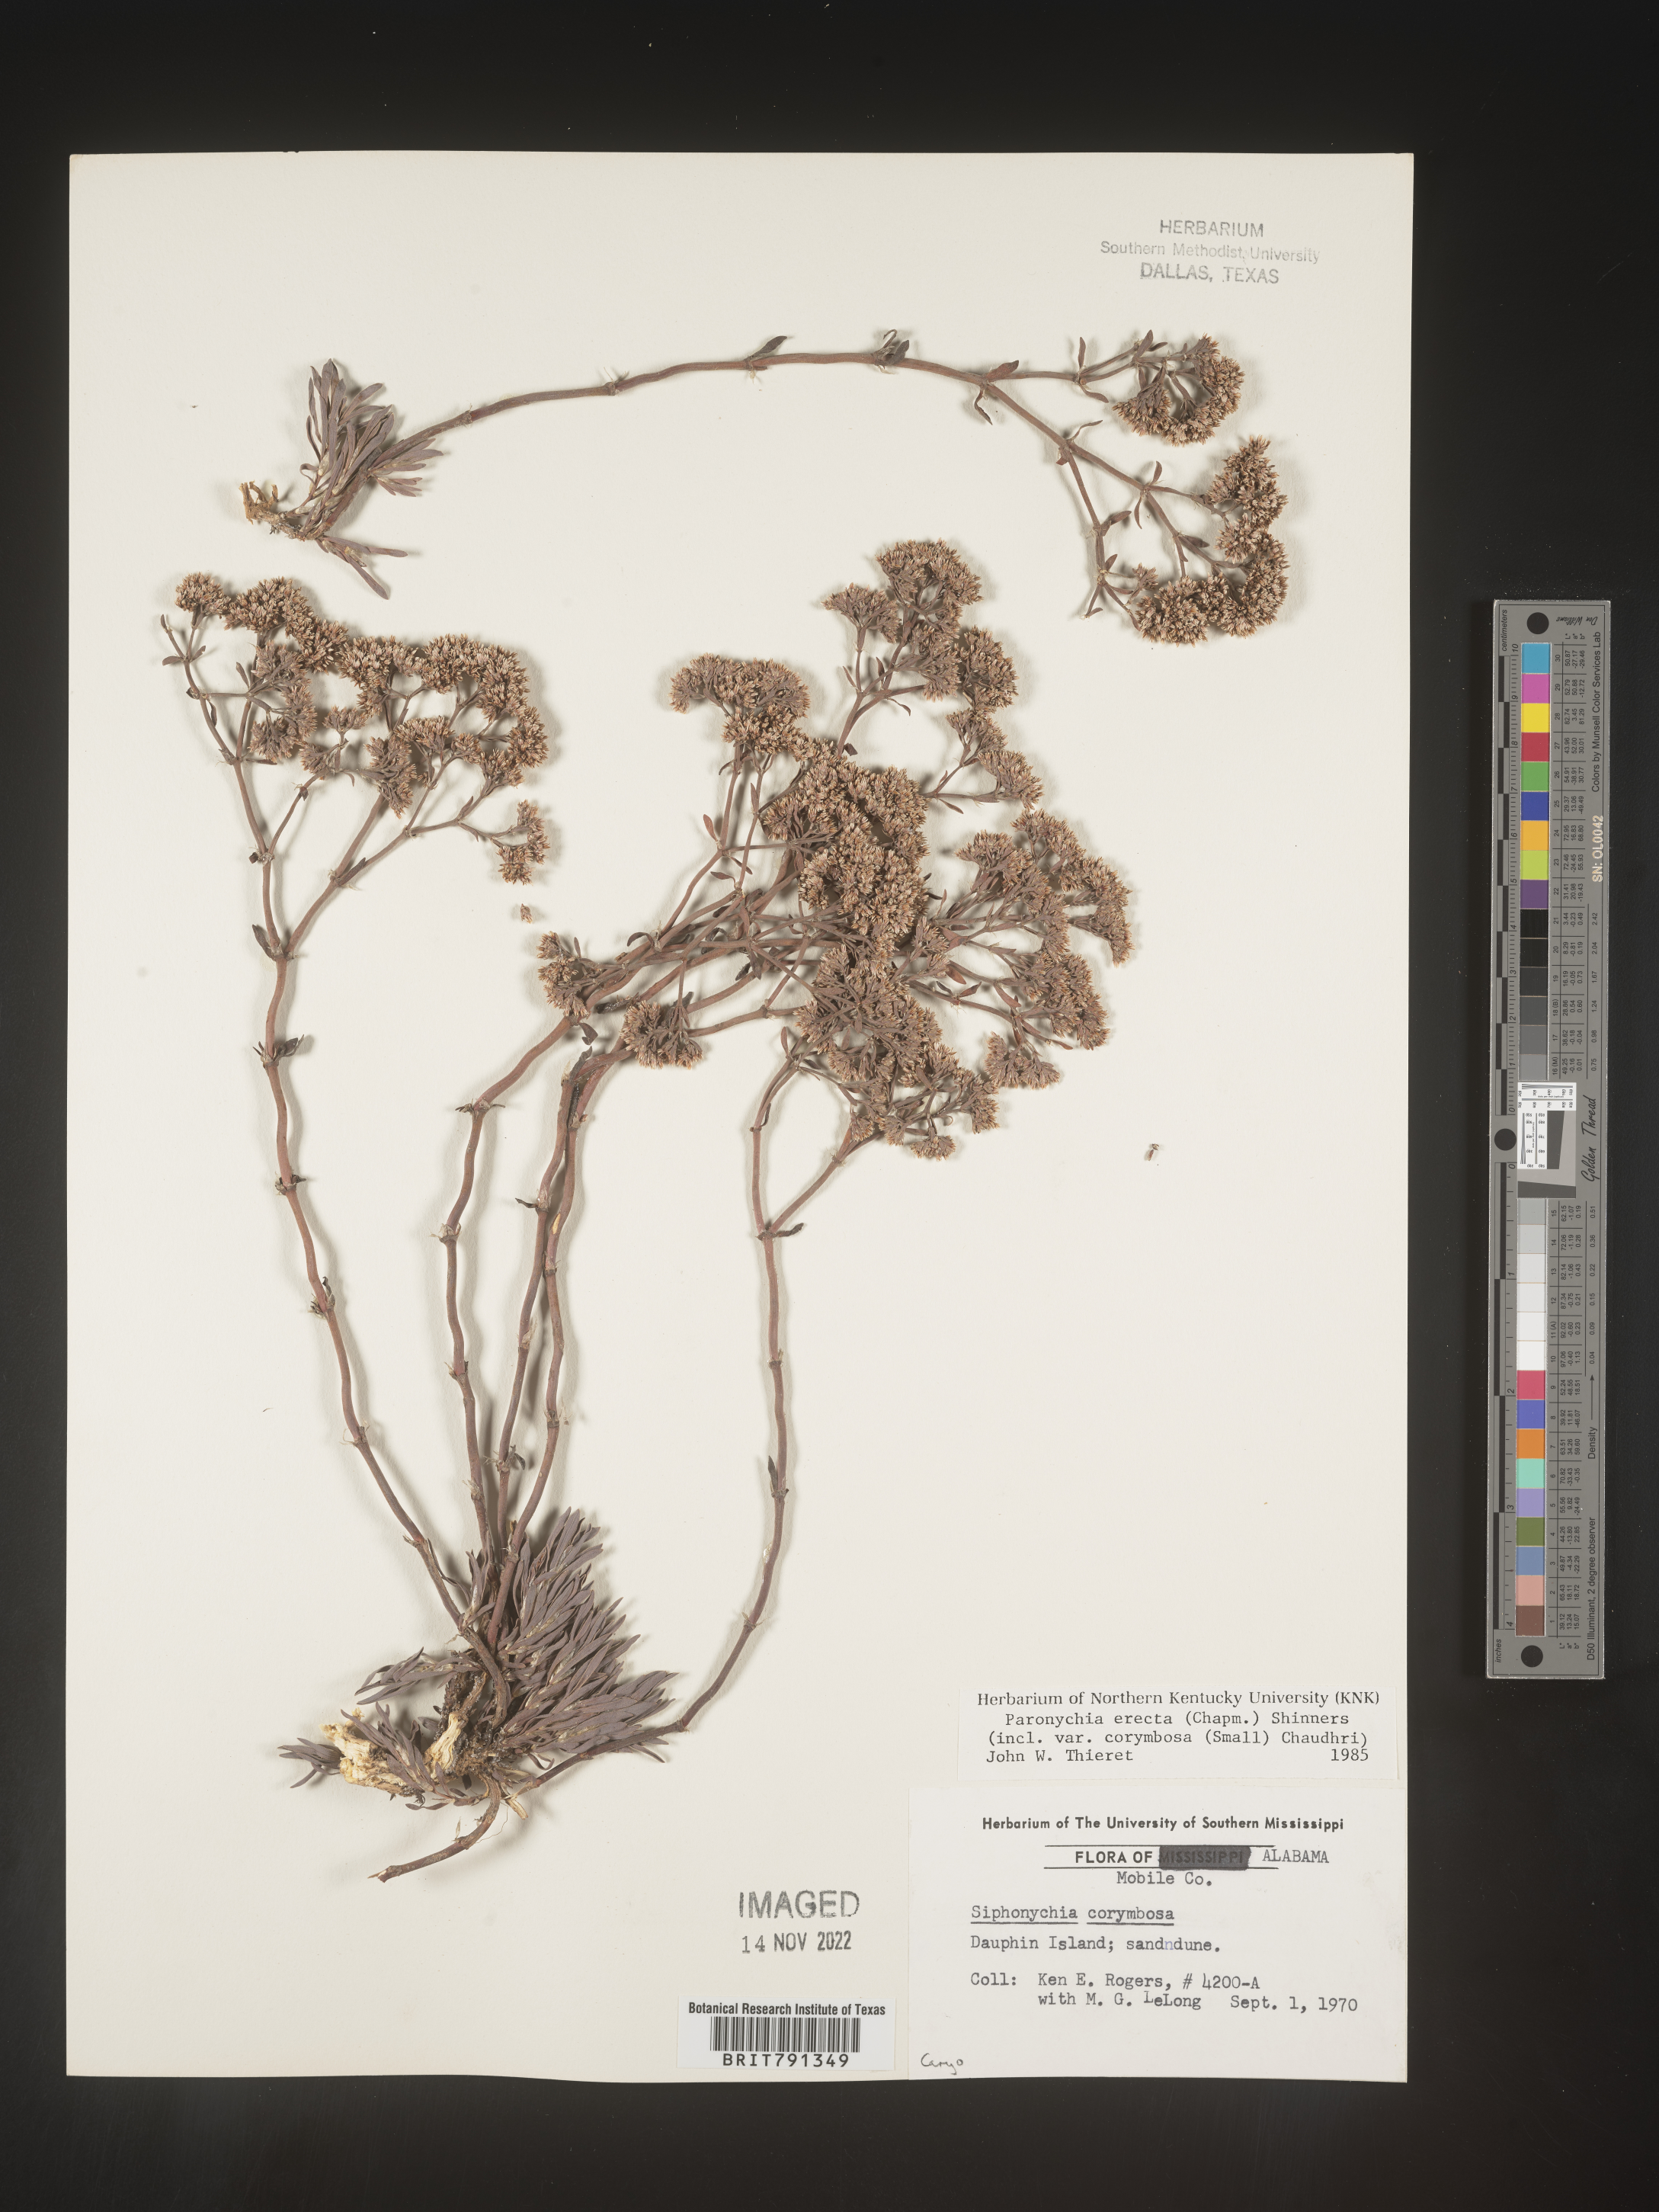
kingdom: Plantae
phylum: Tracheophyta
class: Magnoliopsida
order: Caryophyllales
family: Caryophyllaceae
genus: Paronychia
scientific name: Paronychia erecta
